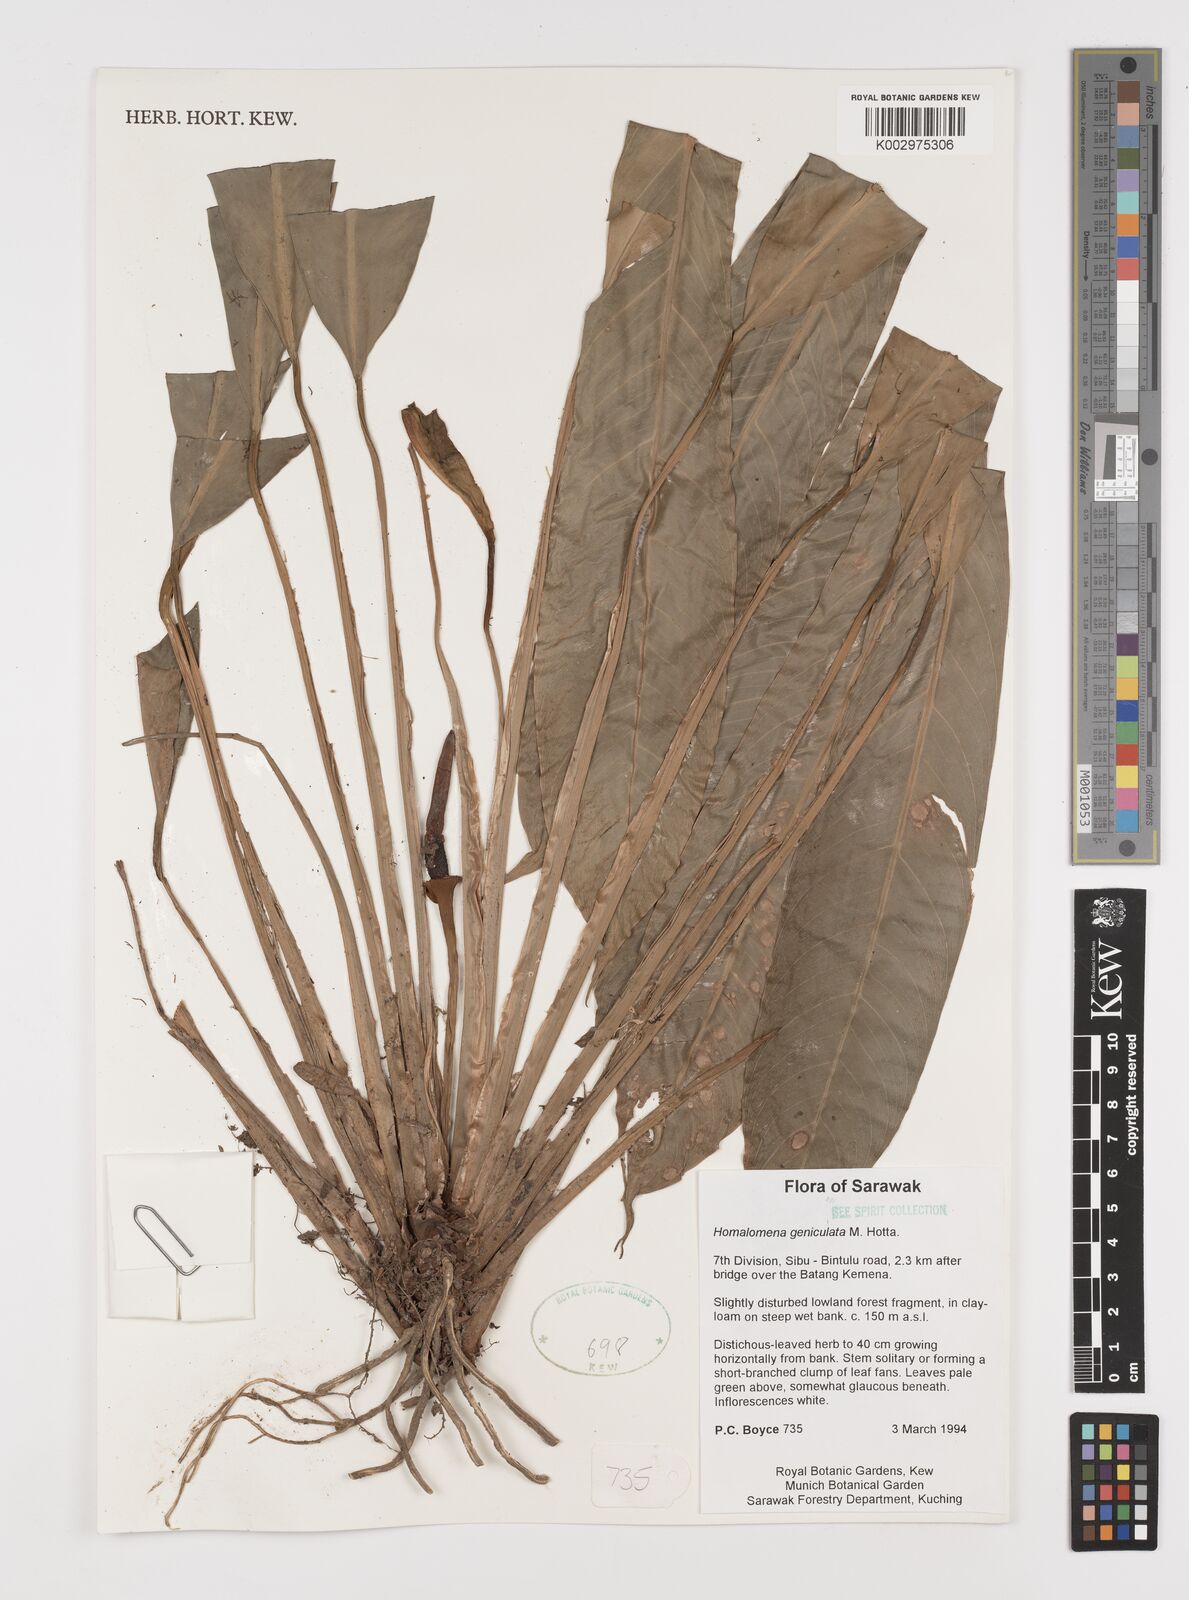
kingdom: Plantae
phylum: Tracheophyta
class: Liliopsida
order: Alismatales
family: Araceae
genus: Homalomena
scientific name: Homalomena punctulata
